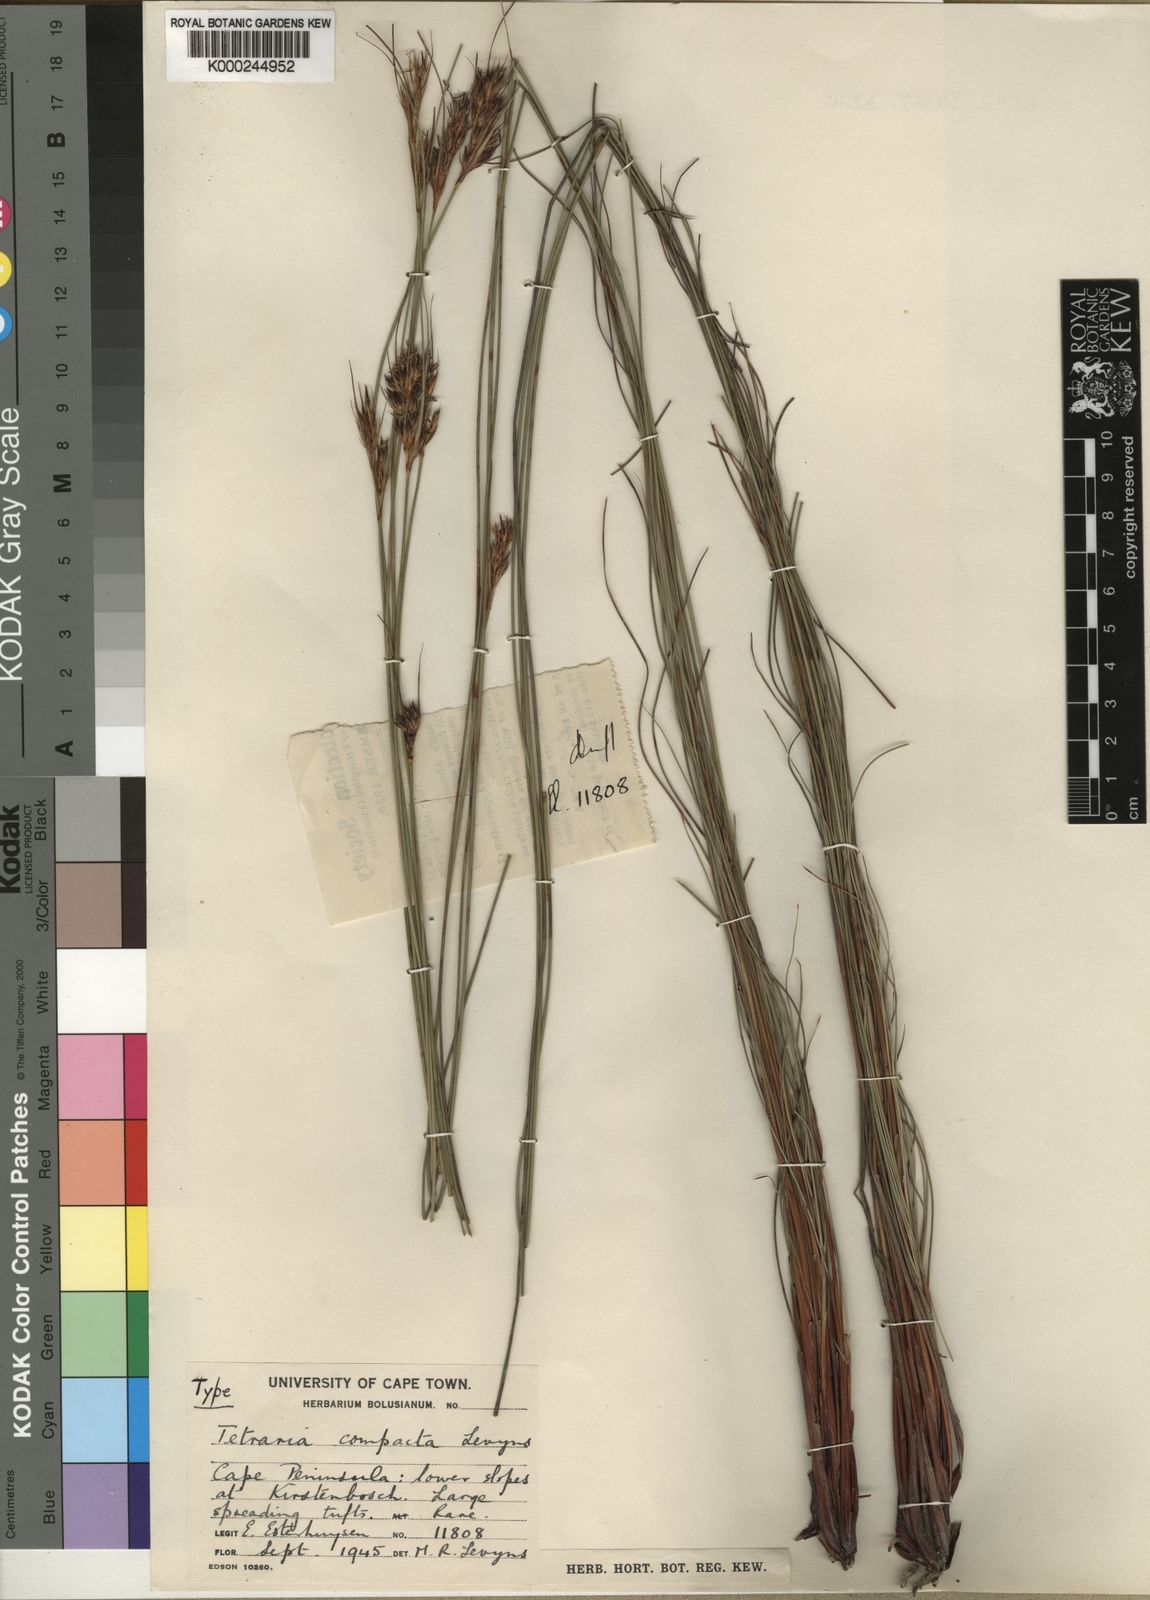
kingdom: Plantae
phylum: Tracheophyta
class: Liliopsida
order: Poales
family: Cyperaceae
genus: Schoenus
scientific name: Schoenus compactus
